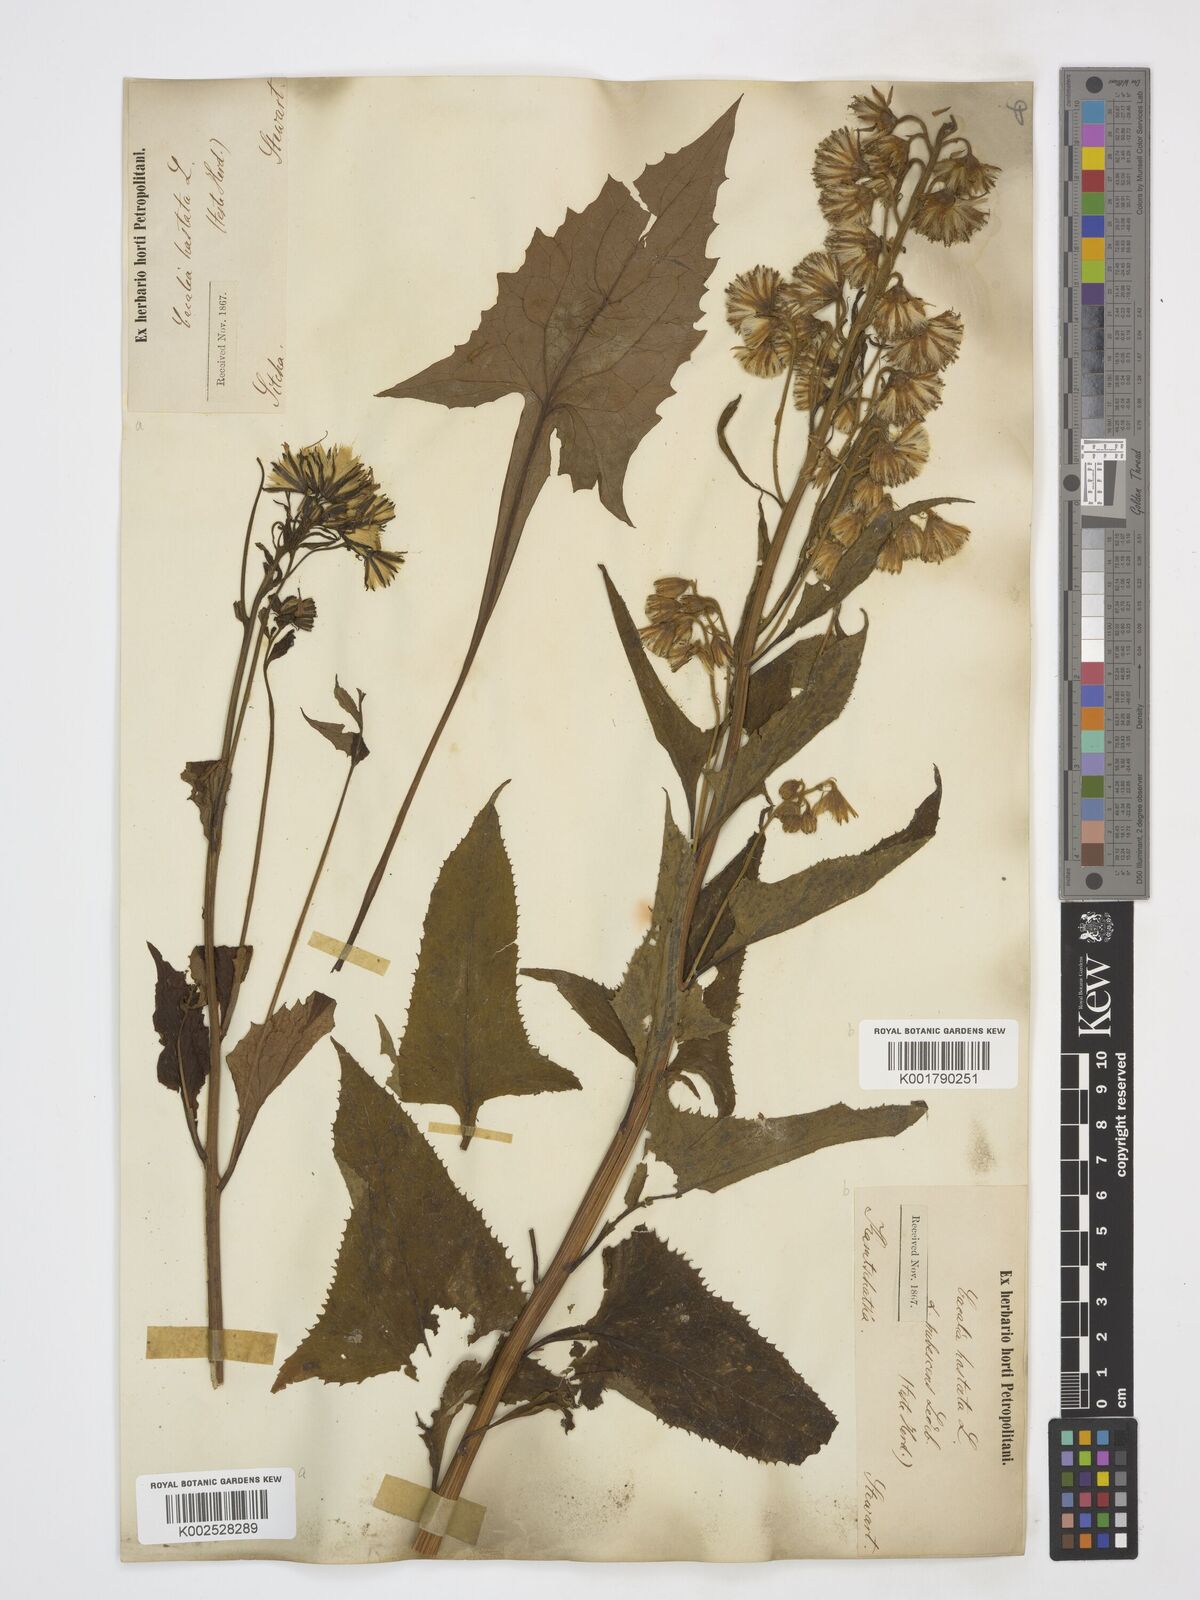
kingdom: Plantae
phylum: Tracheophyta
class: Magnoliopsida
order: Asterales
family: Asteraceae
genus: Parasenecio
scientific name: Parasenecio hastatus
